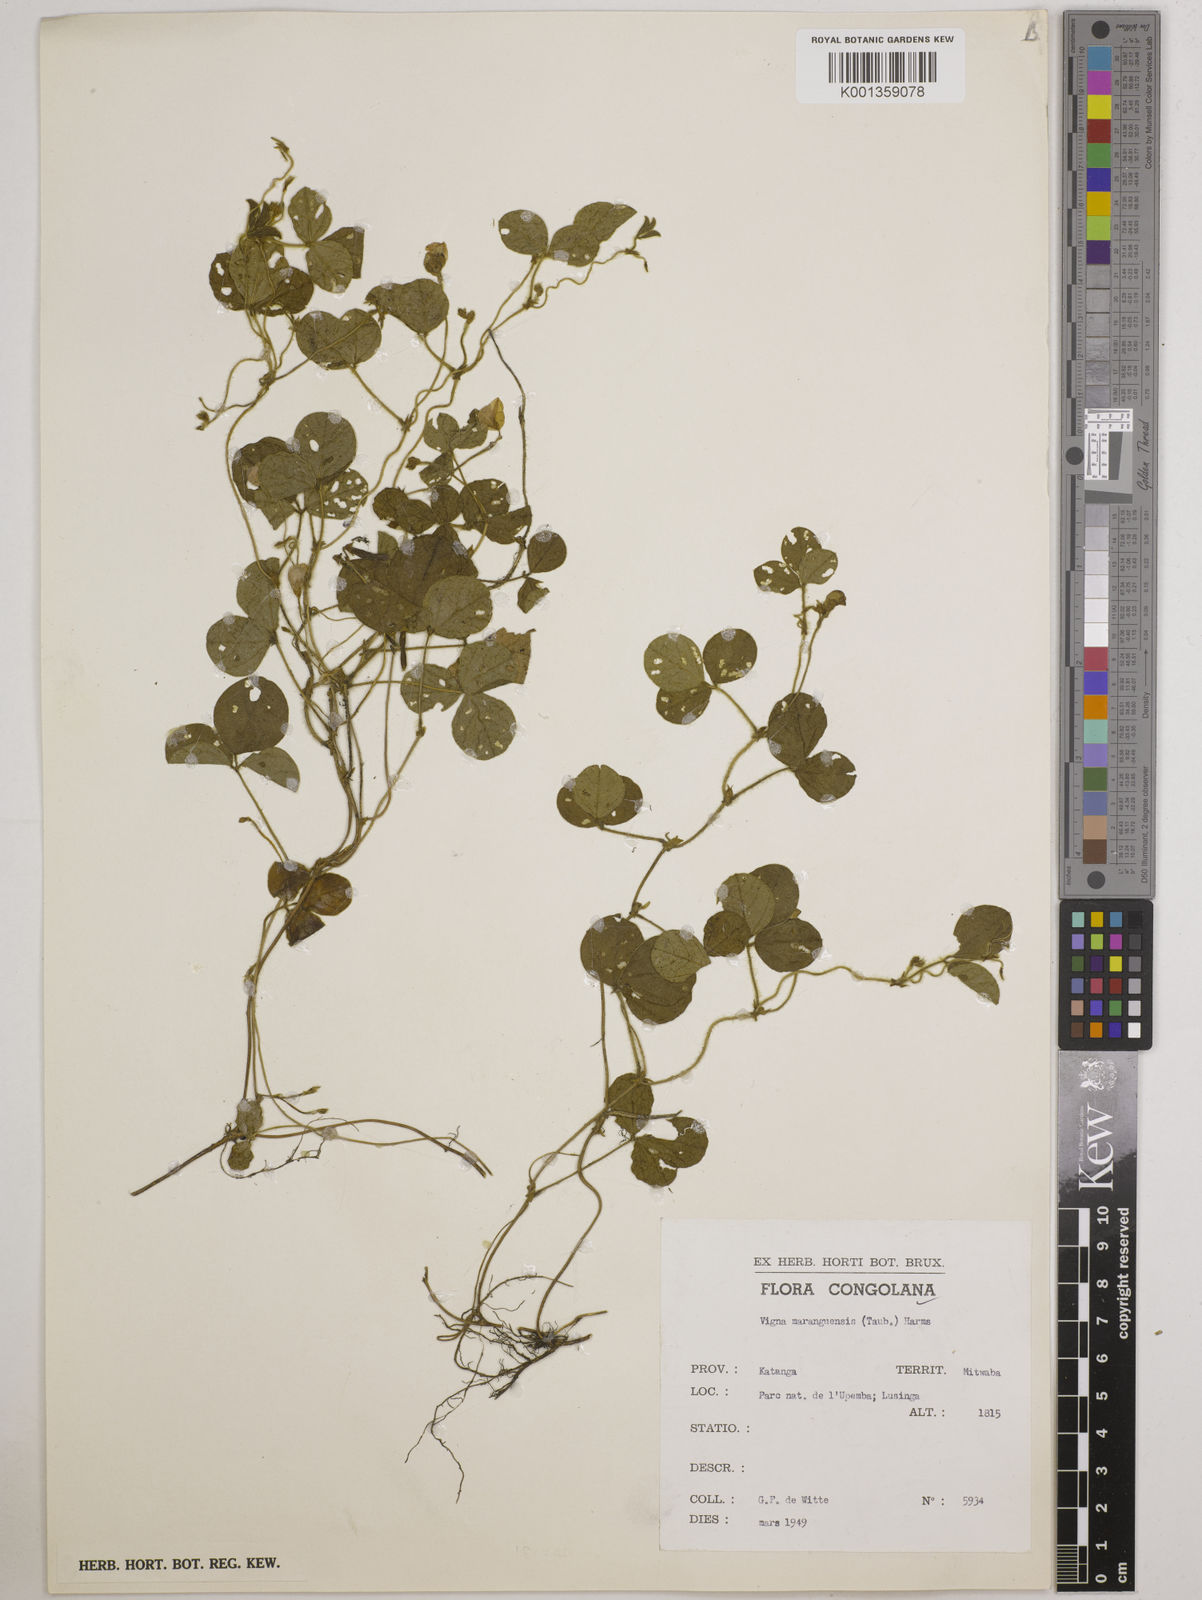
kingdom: Plantae
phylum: Tracheophyta
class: Magnoliopsida
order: Fabales
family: Fabaceae
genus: Vigna
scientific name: Vigna
